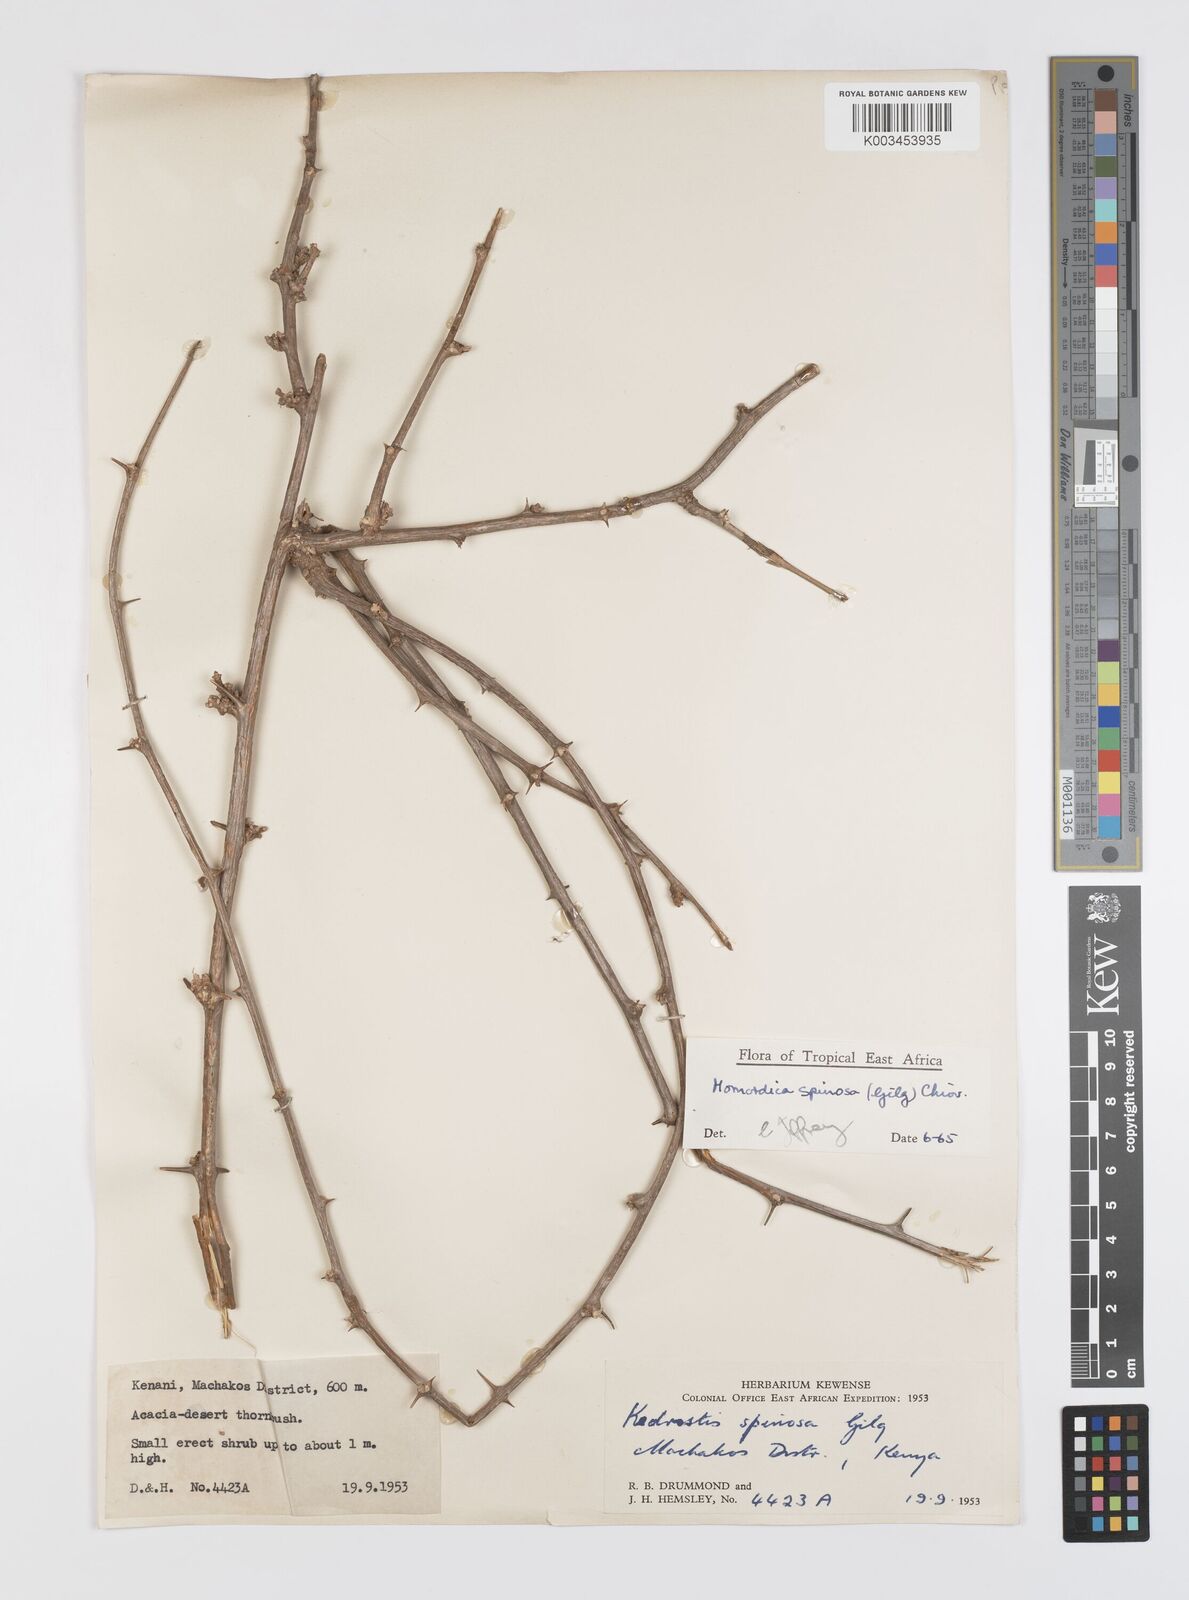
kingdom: Plantae
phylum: Tracheophyta
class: Magnoliopsida
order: Cucurbitales
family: Cucurbitaceae
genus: Momordica
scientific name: Momordica spinosa
